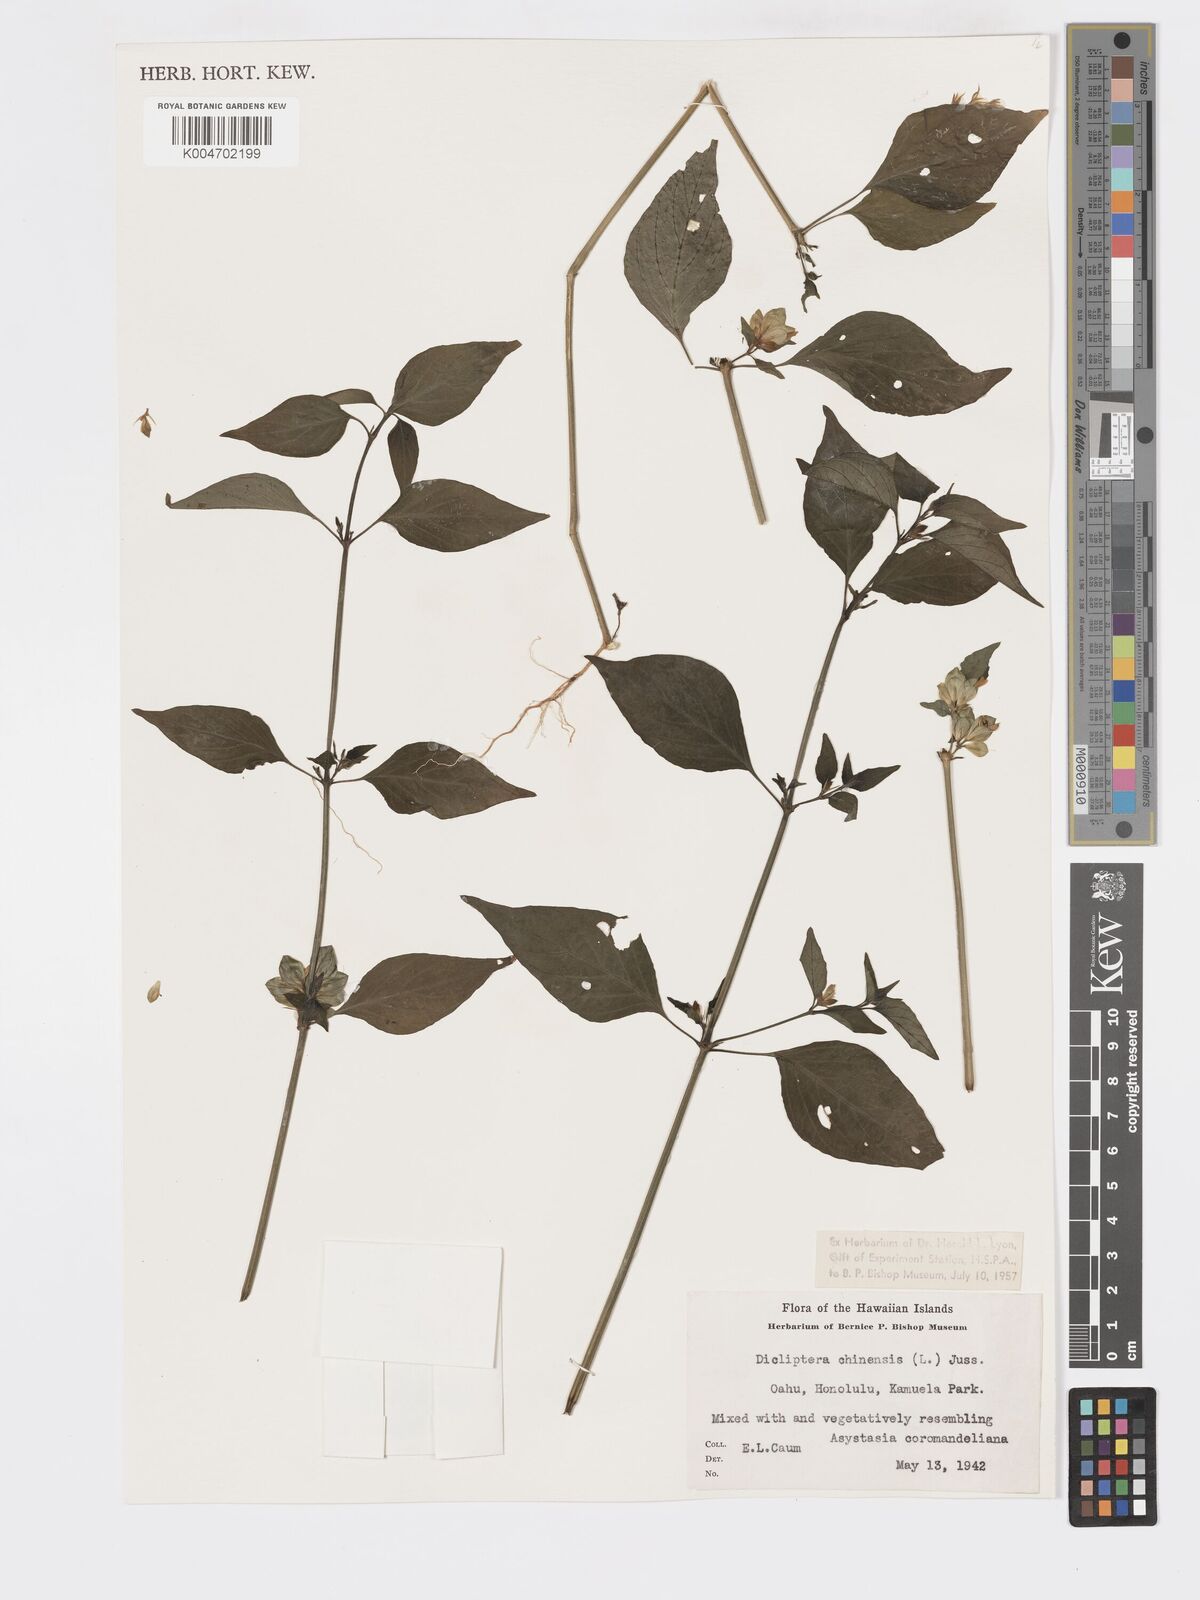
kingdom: Plantae
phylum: Tracheophyta
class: Magnoliopsida
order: Lamiales
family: Acanthaceae
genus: Dicliptera
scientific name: Dicliptera chinensis
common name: Chinese foldwing
